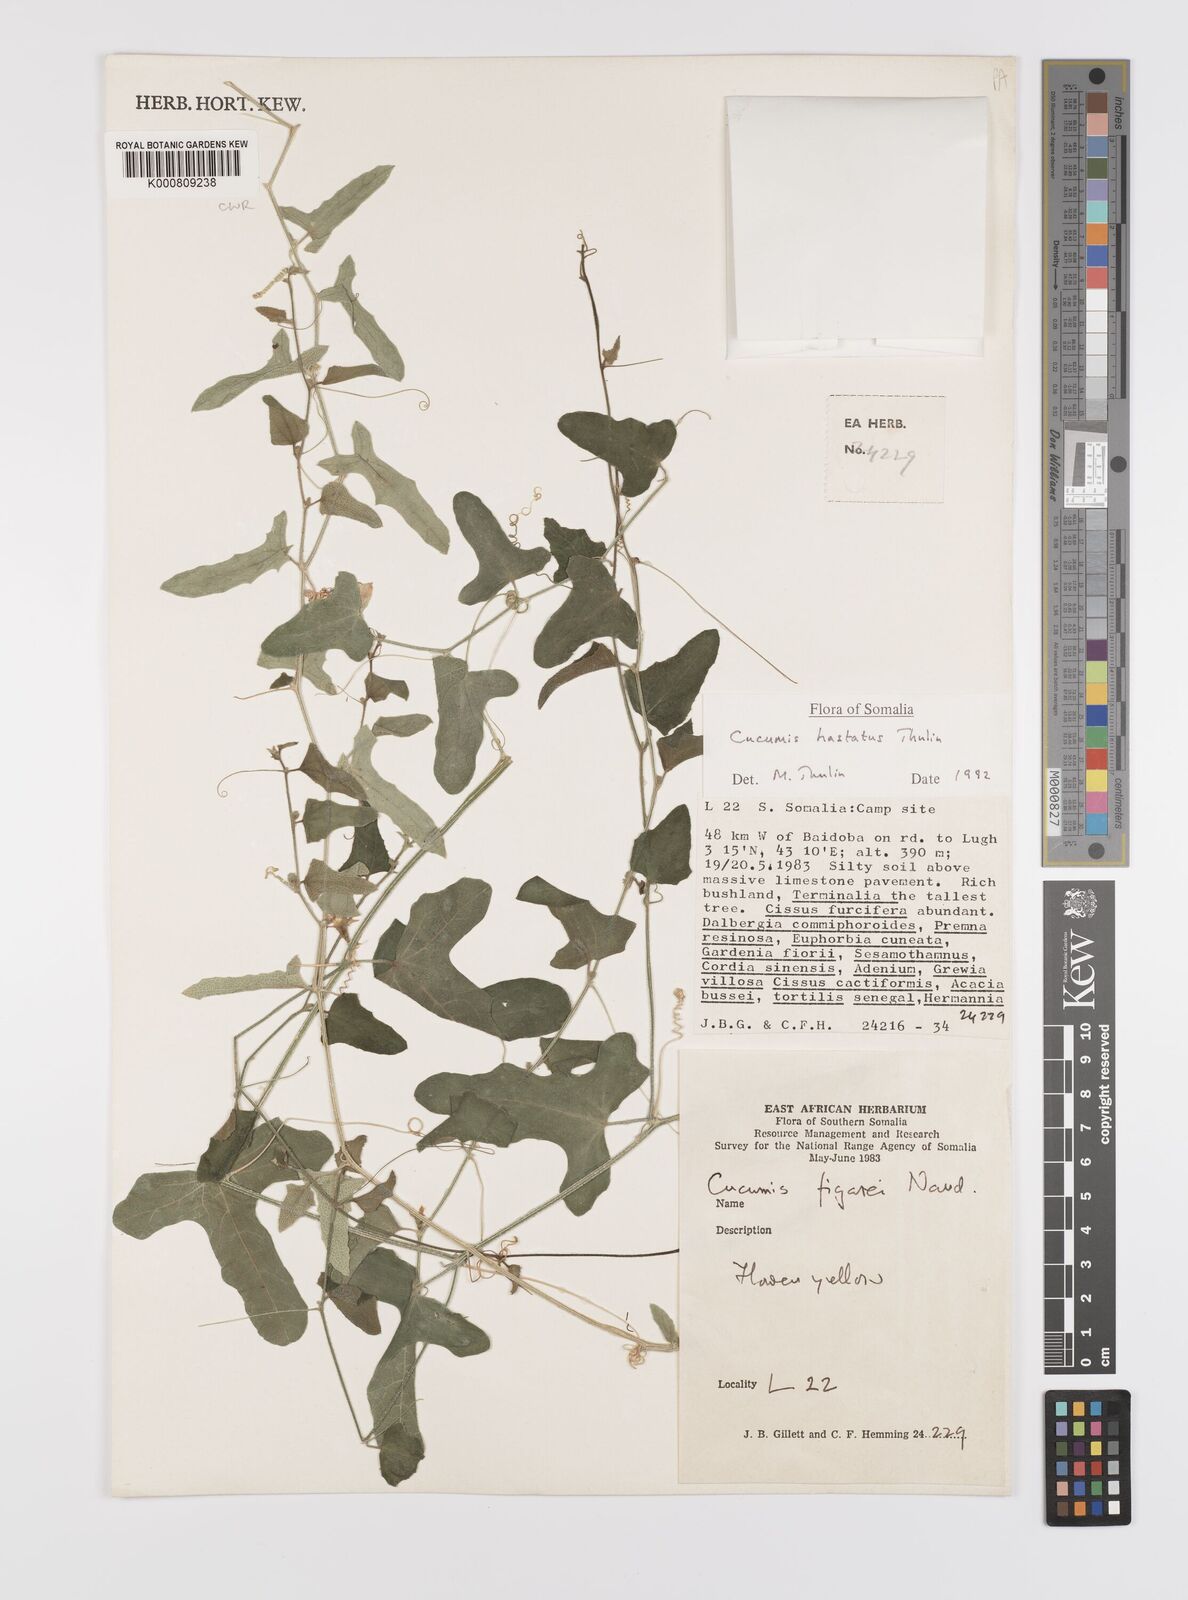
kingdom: Plantae
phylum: Tracheophyta
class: Magnoliopsida
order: Cucurbitales
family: Cucurbitaceae
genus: Cucumis
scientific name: Cucumis
